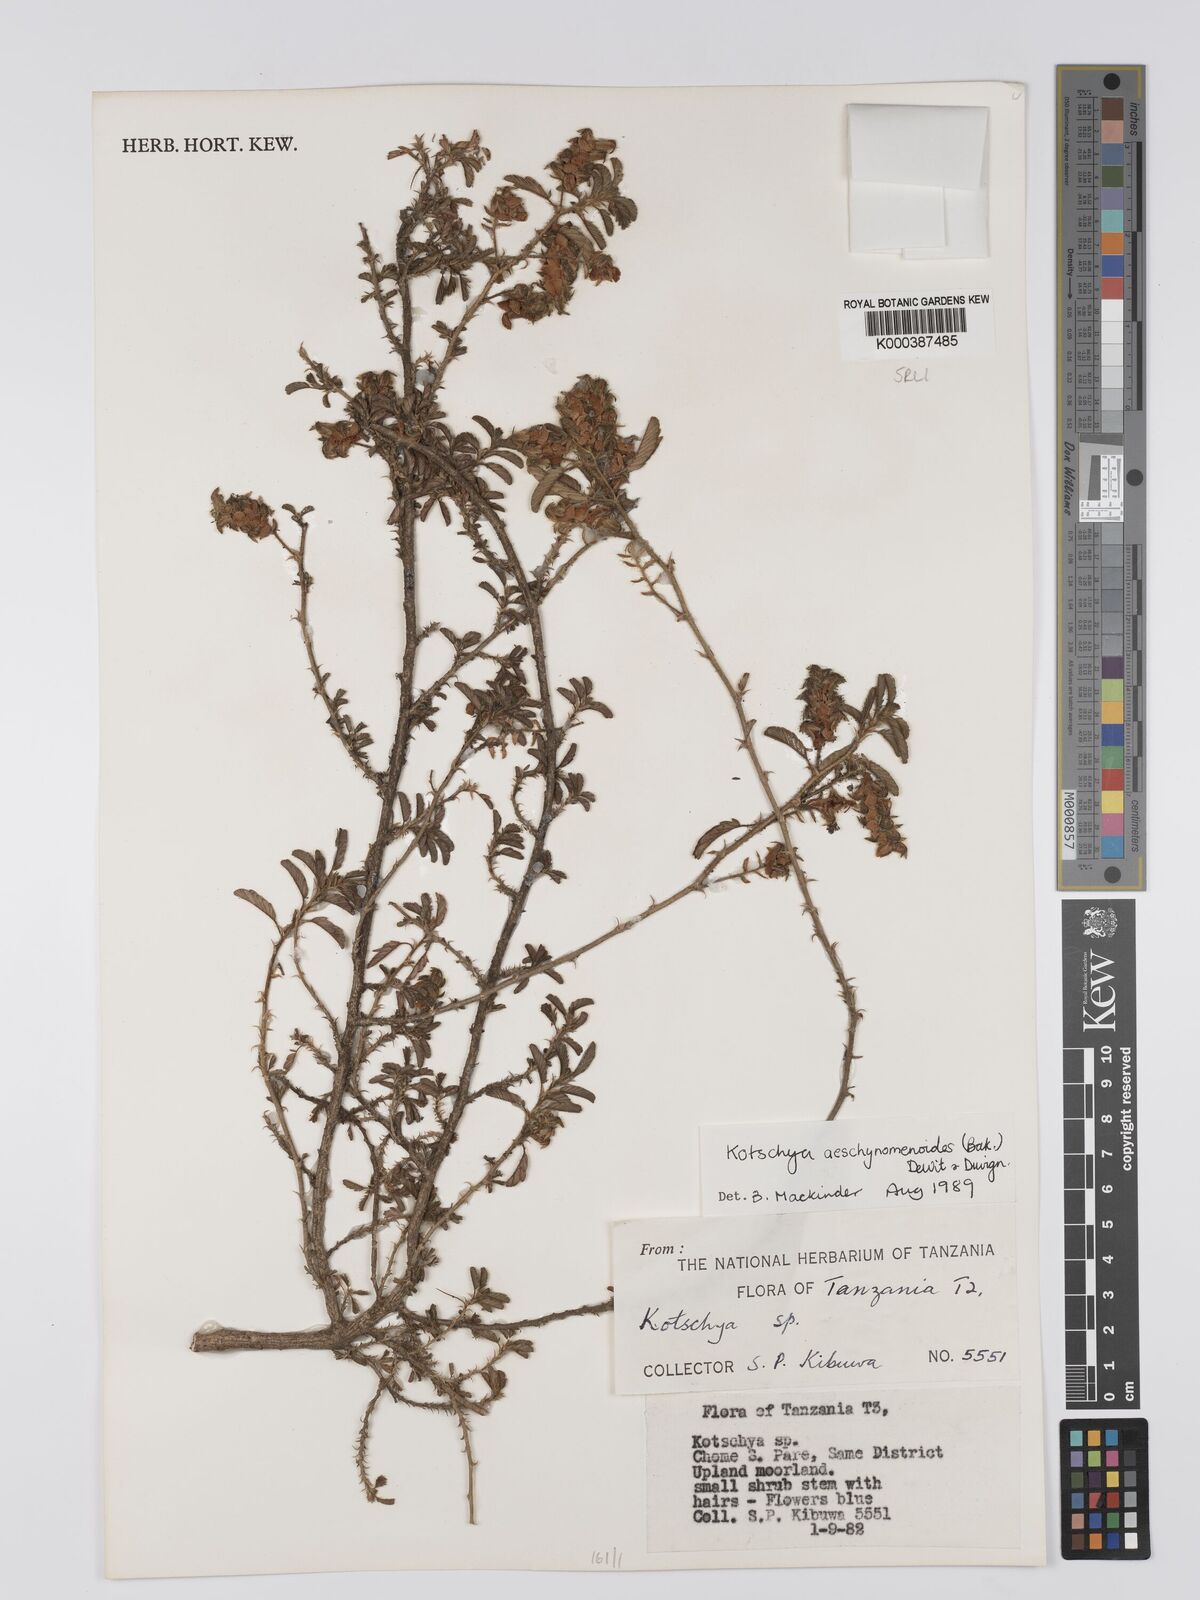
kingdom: Plantae
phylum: Tracheophyta
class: Magnoliopsida
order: Fabales
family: Fabaceae
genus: Kotschya
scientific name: Kotschya aeschynomenoides
